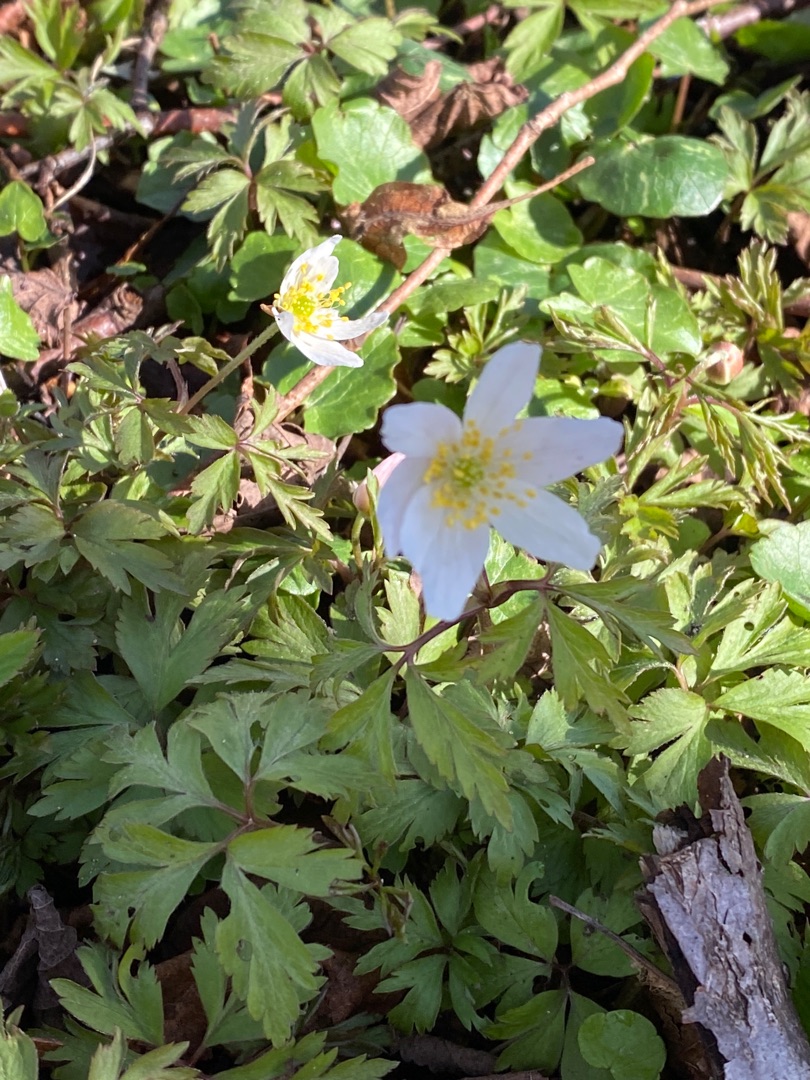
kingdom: Plantae
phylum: Tracheophyta
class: Magnoliopsida
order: Ranunculales
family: Ranunculaceae
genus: Anemone
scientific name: Anemone nemorosa
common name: Hvid anemone
